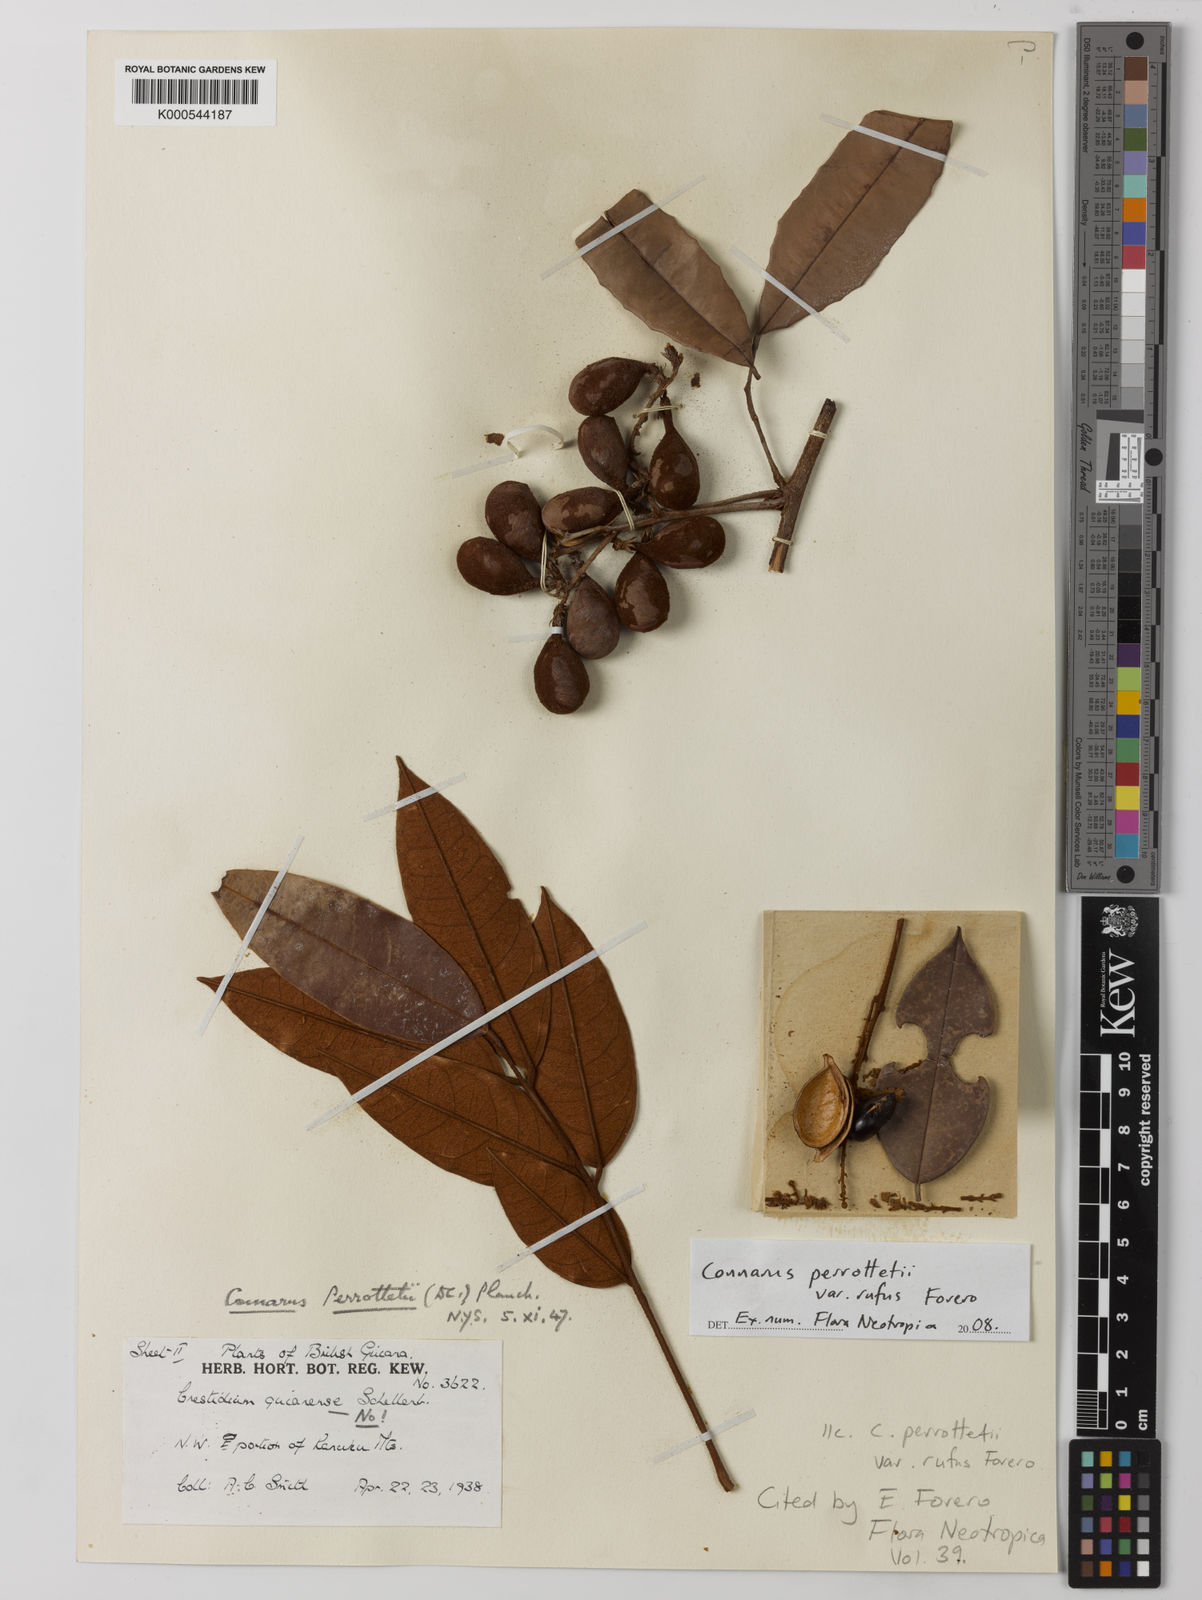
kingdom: Plantae
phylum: Tracheophyta
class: Magnoliopsida
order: Oxalidales
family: Connaraceae
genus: Connarus
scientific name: Connarus perrottetii
